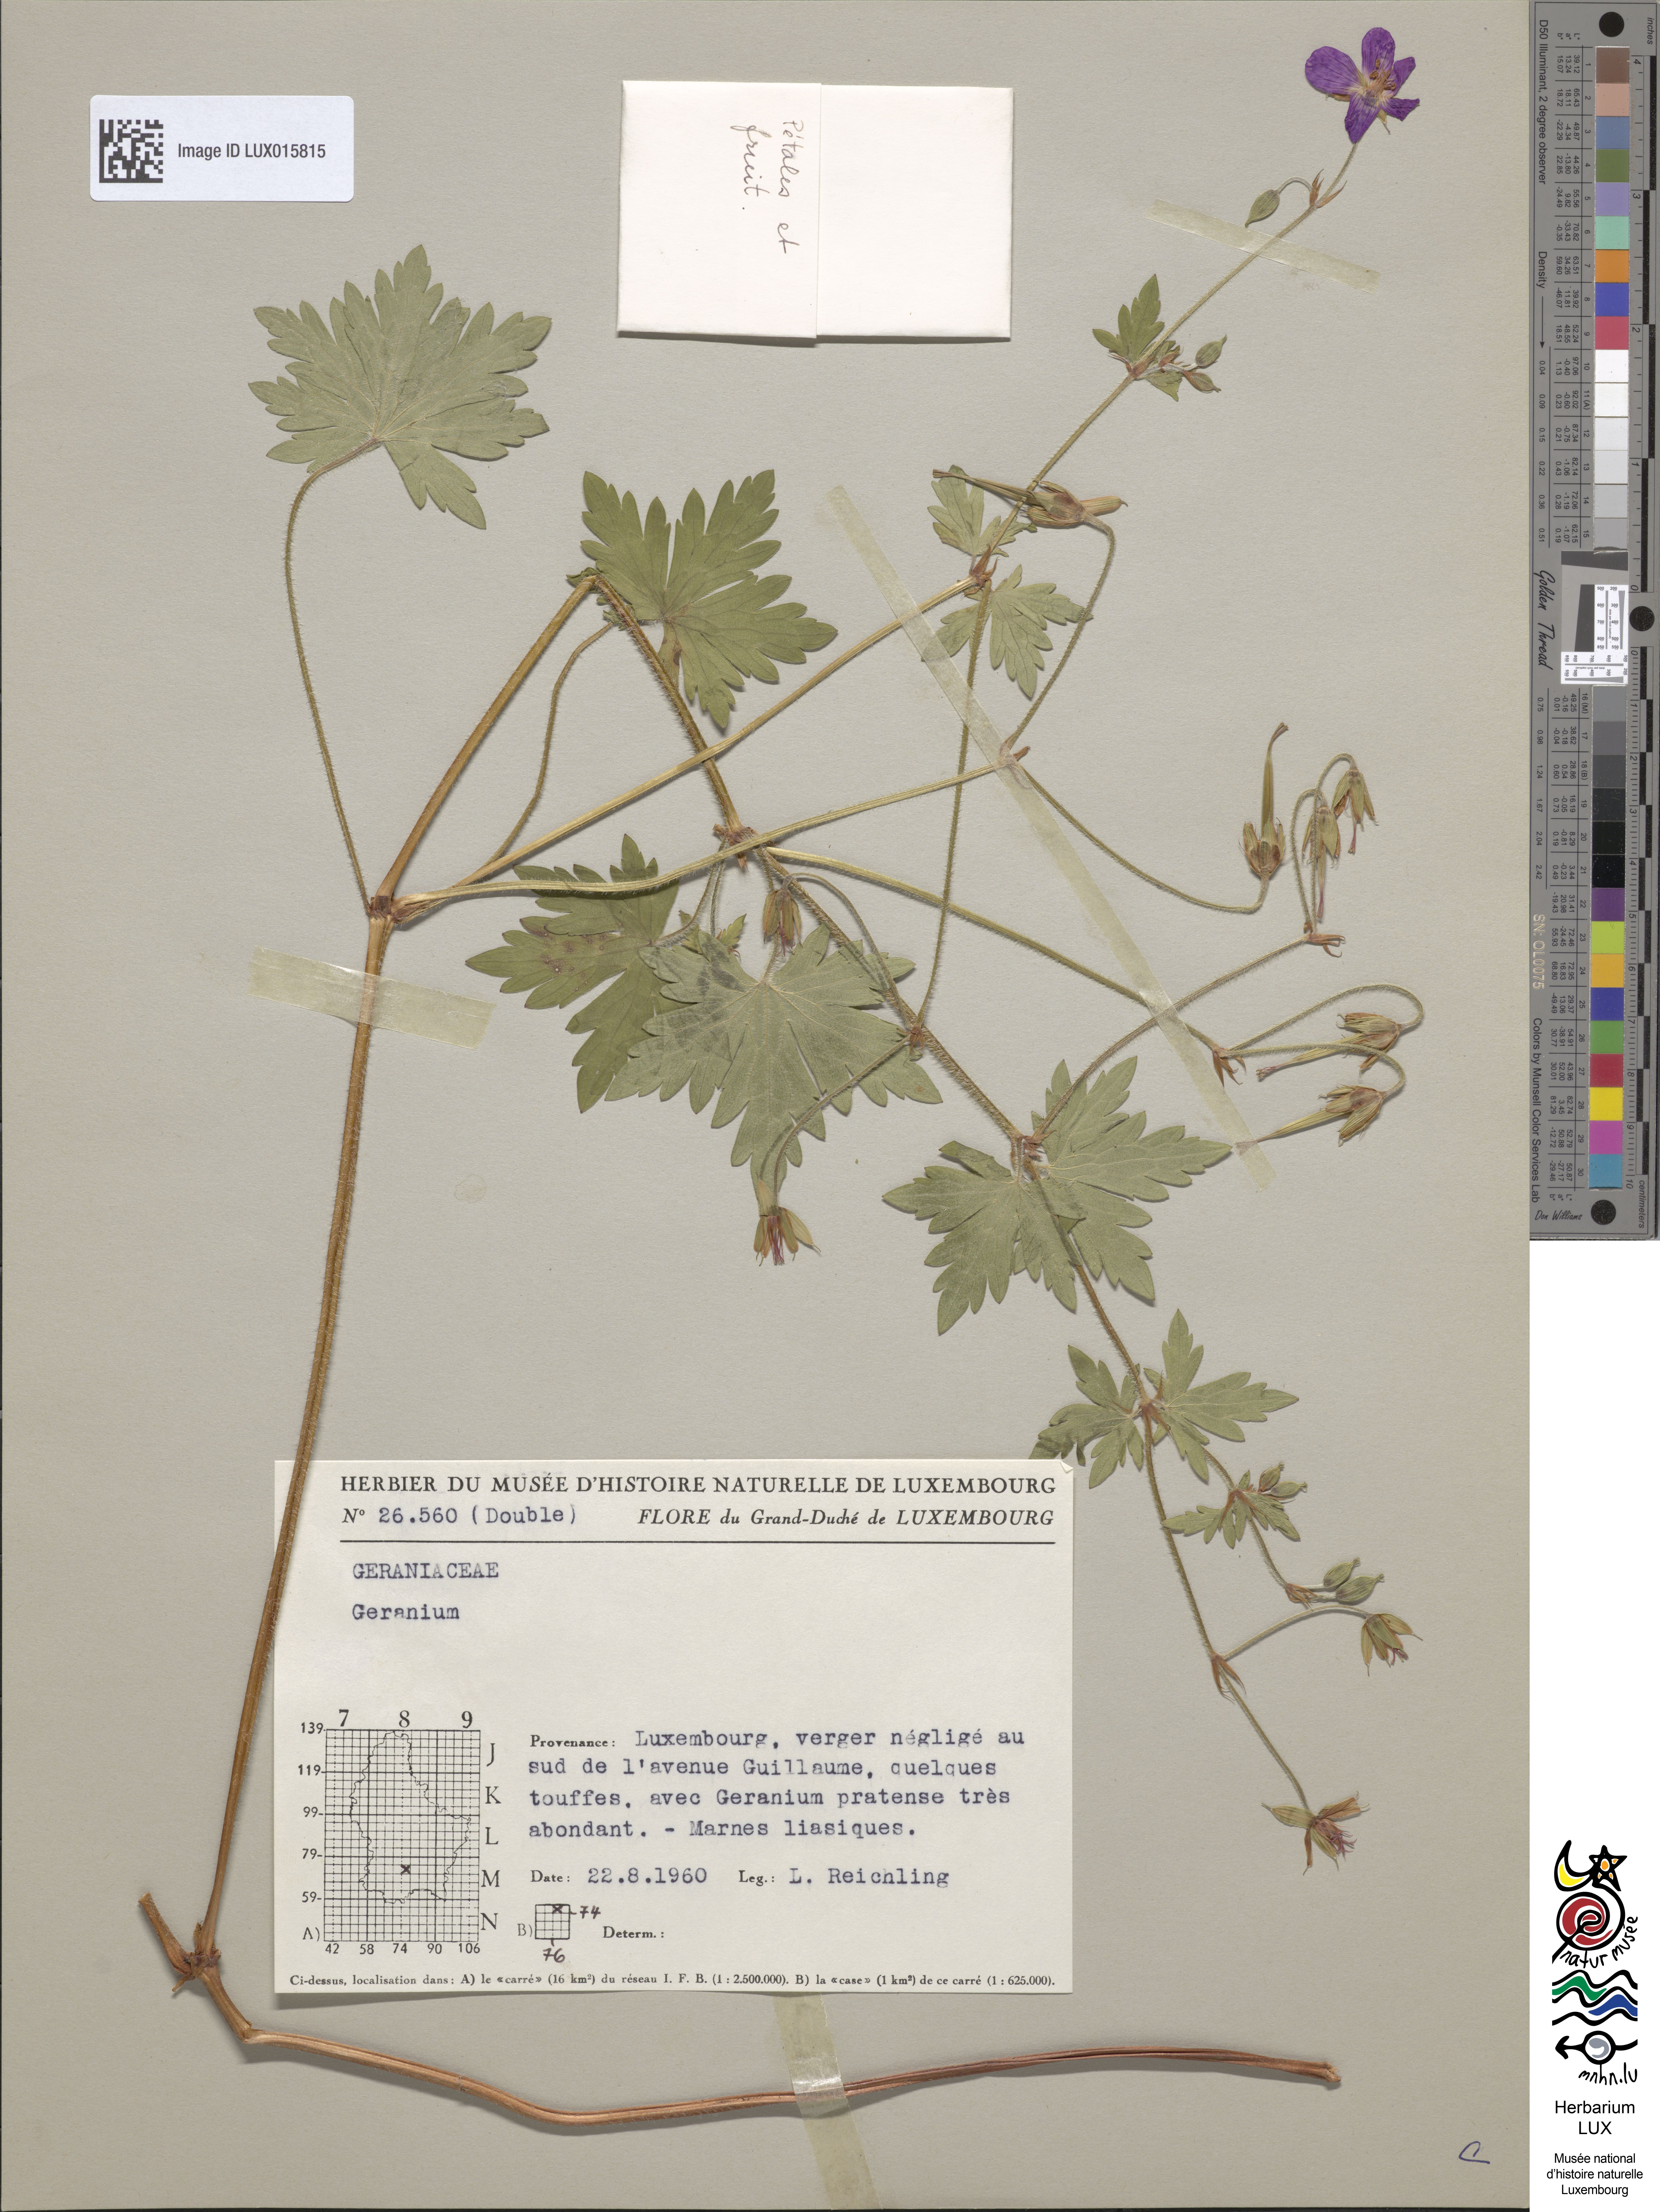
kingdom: Plantae
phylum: Tracheophyta
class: Magnoliopsida
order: Geraniales
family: Geraniaceae
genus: Geranium
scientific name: Geranium palustre
